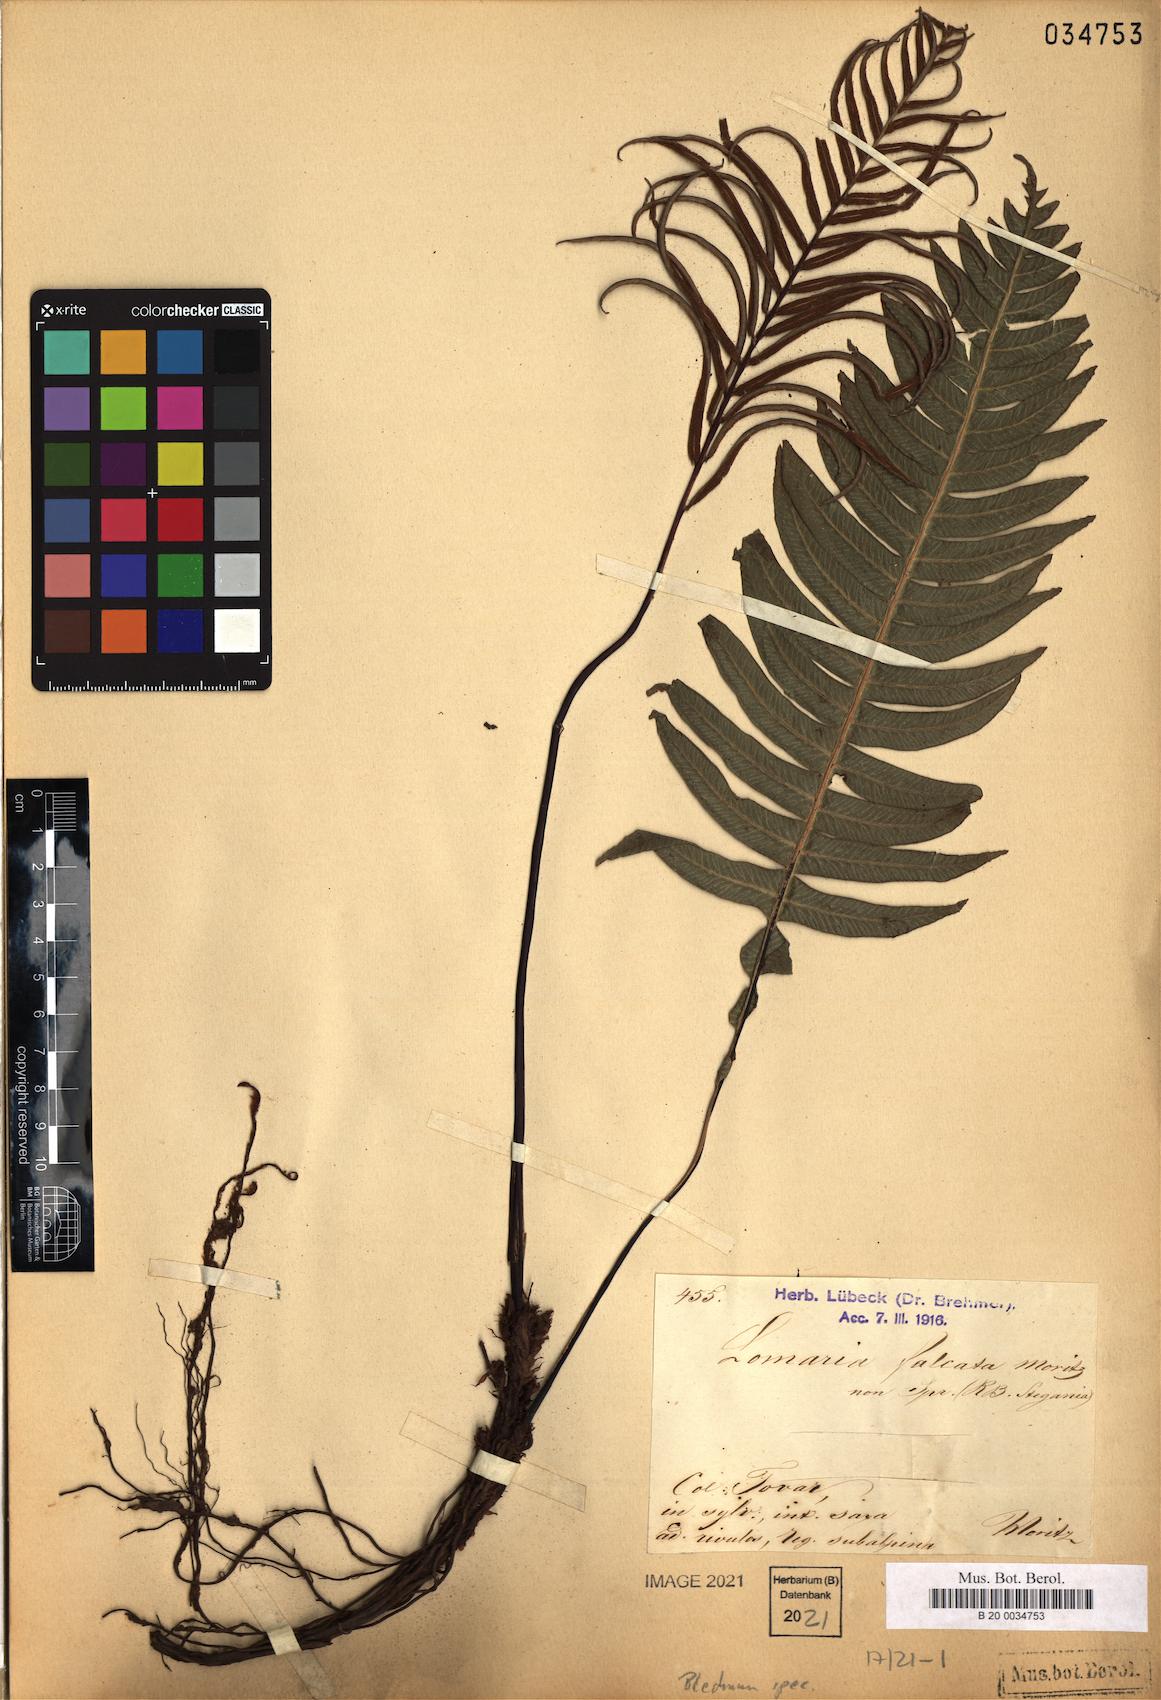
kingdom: Plantae
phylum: Tracheophyta
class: Polypodiopsida
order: Polypodiales
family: Blechnaceae
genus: Blechnum
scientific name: Blechnum
